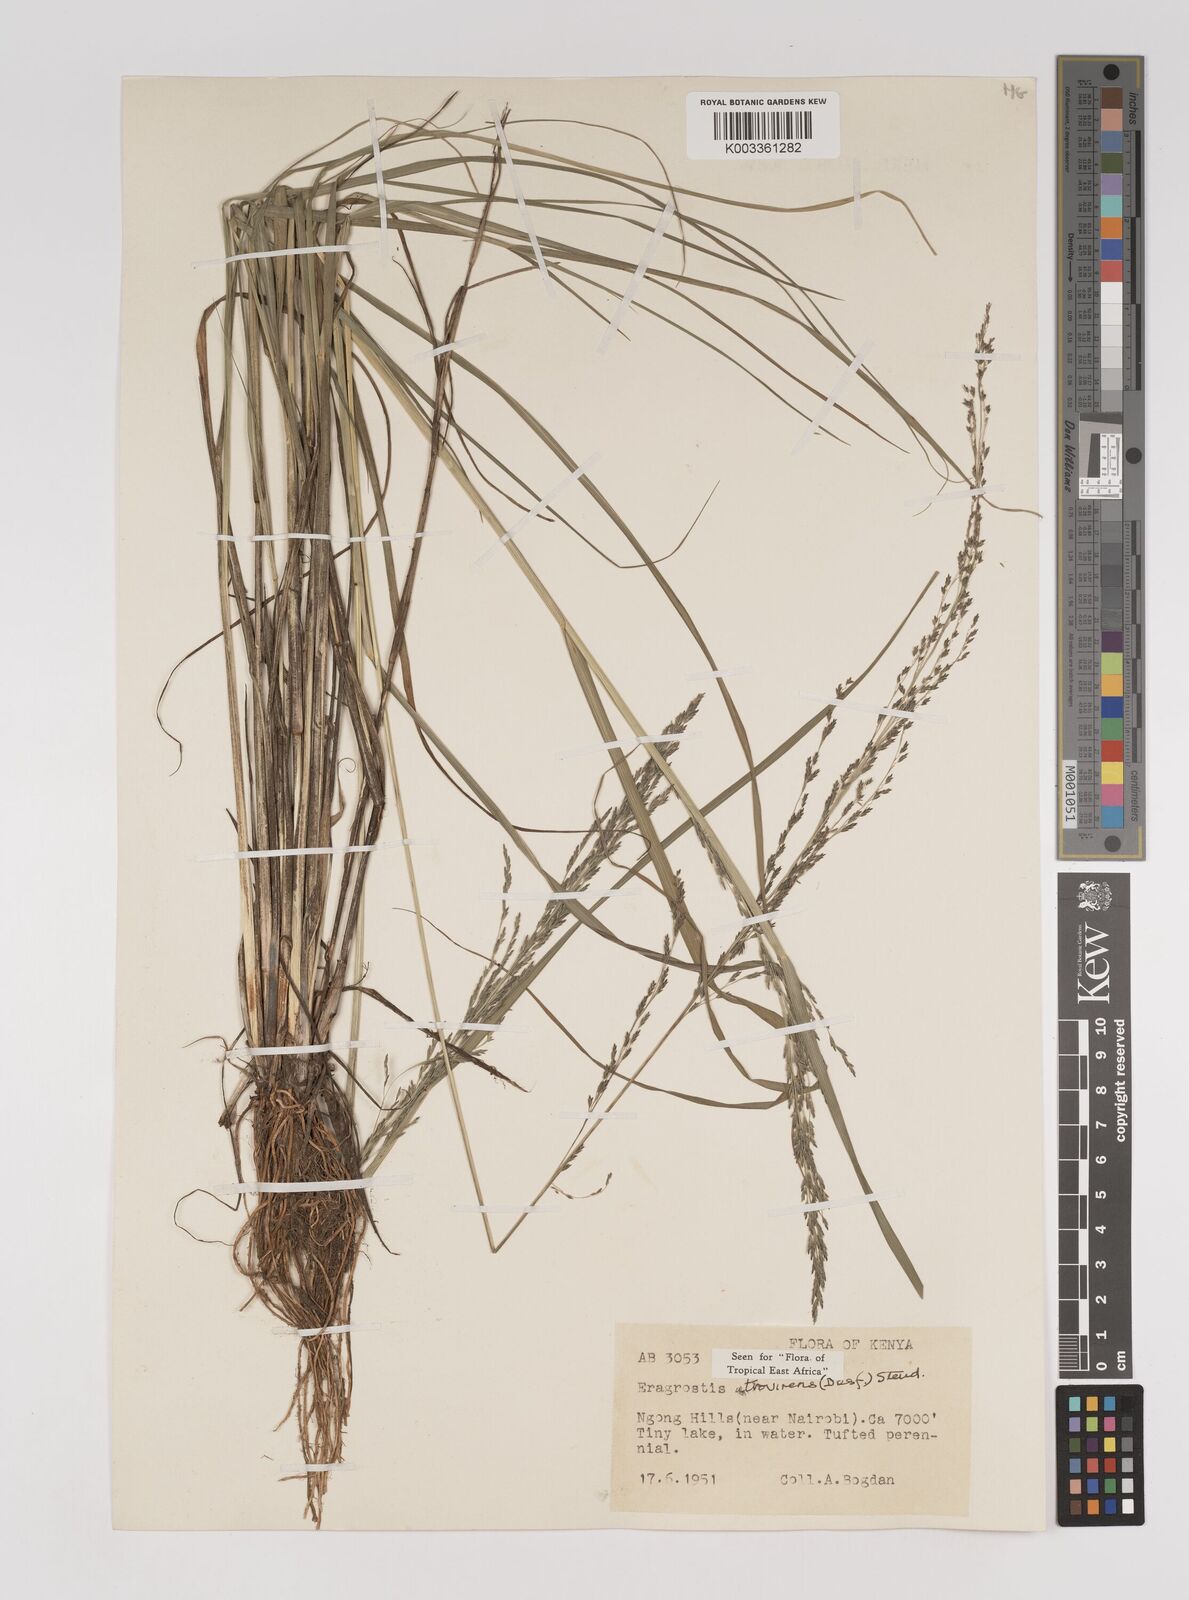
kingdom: Plantae
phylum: Tracheophyta
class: Liliopsida
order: Poales
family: Poaceae
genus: Eragrostis
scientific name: Eragrostis papposa
